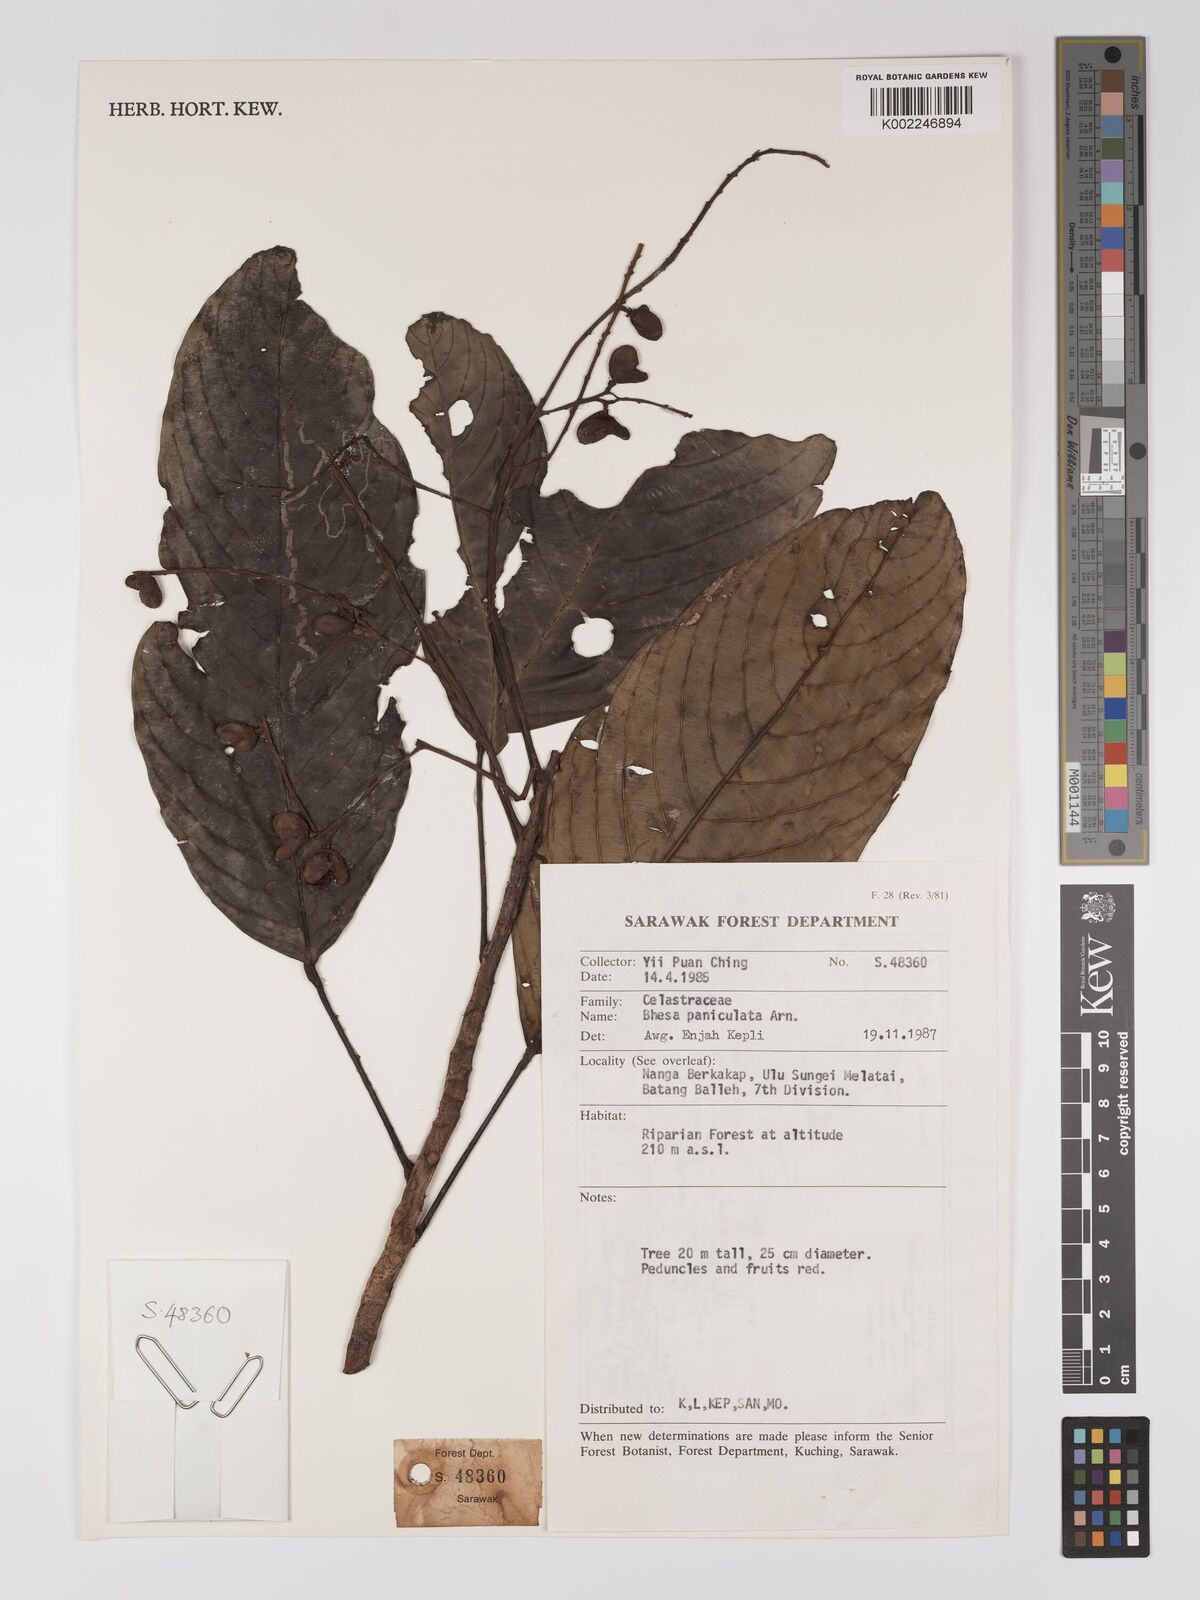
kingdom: Plantae
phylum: Tracheophyta
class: Magnoliopsida
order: Malpighiales
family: Centroplacaceae
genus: Bhesa
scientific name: Bhesa paniculata
